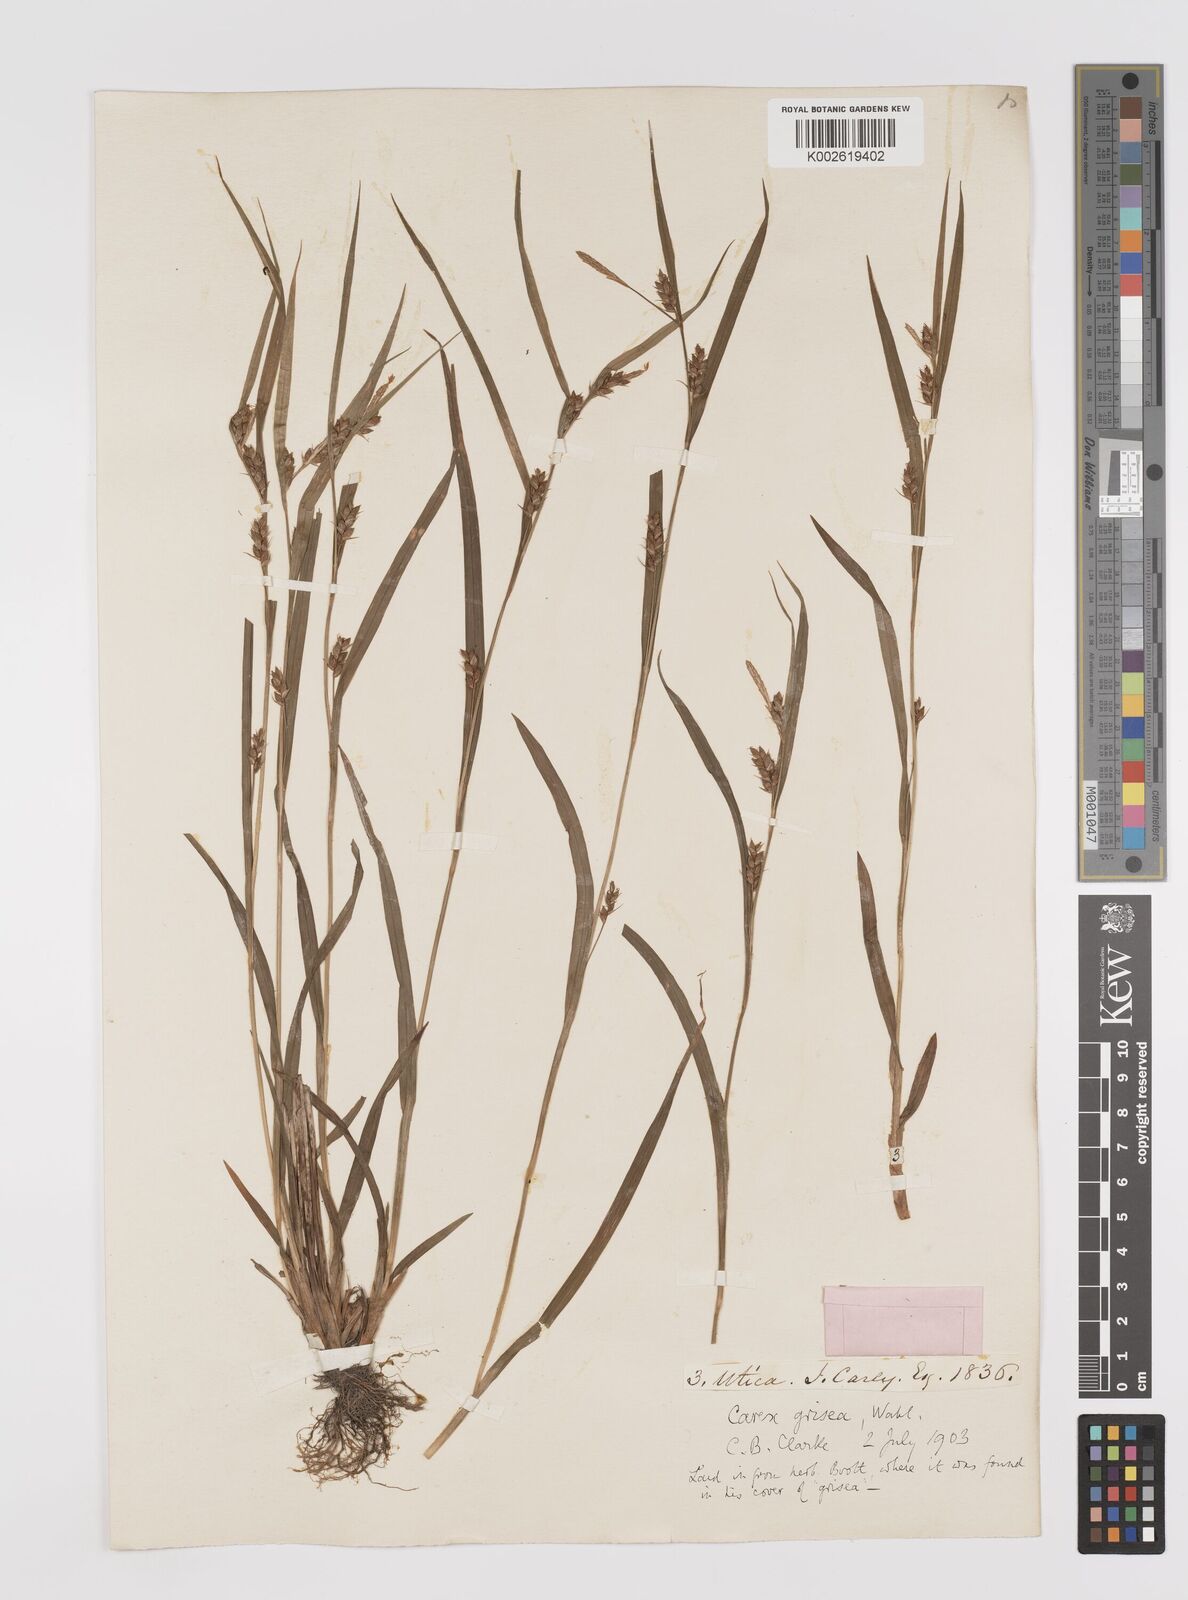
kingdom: Plantae
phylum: Tracheophyta
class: Liliopsida
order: Poales
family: Cyperaceae
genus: Carex
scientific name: Carex grisea
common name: Eastern narrow-leaved sedge
